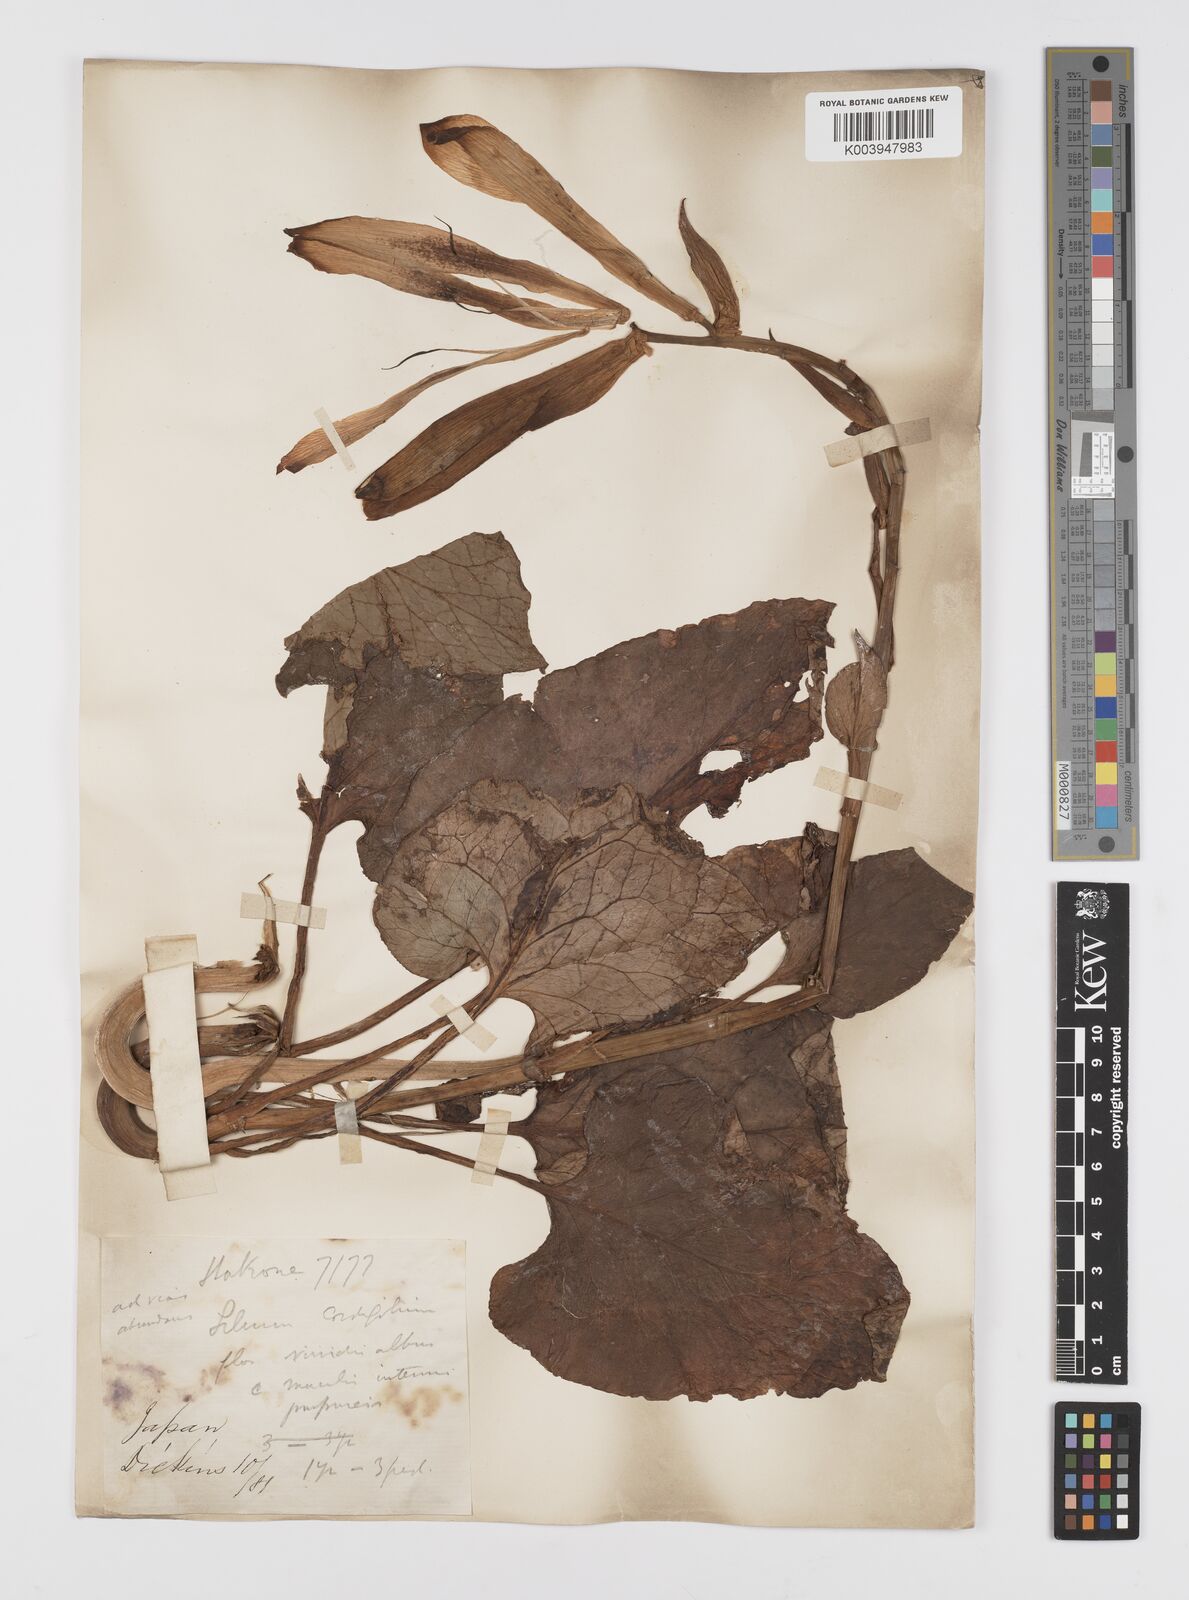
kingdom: Plantae
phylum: Tracheophyta
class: Liliopsida
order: Liliales
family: Liliaceae
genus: Cardiocrinum
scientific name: Cardiocrinum
